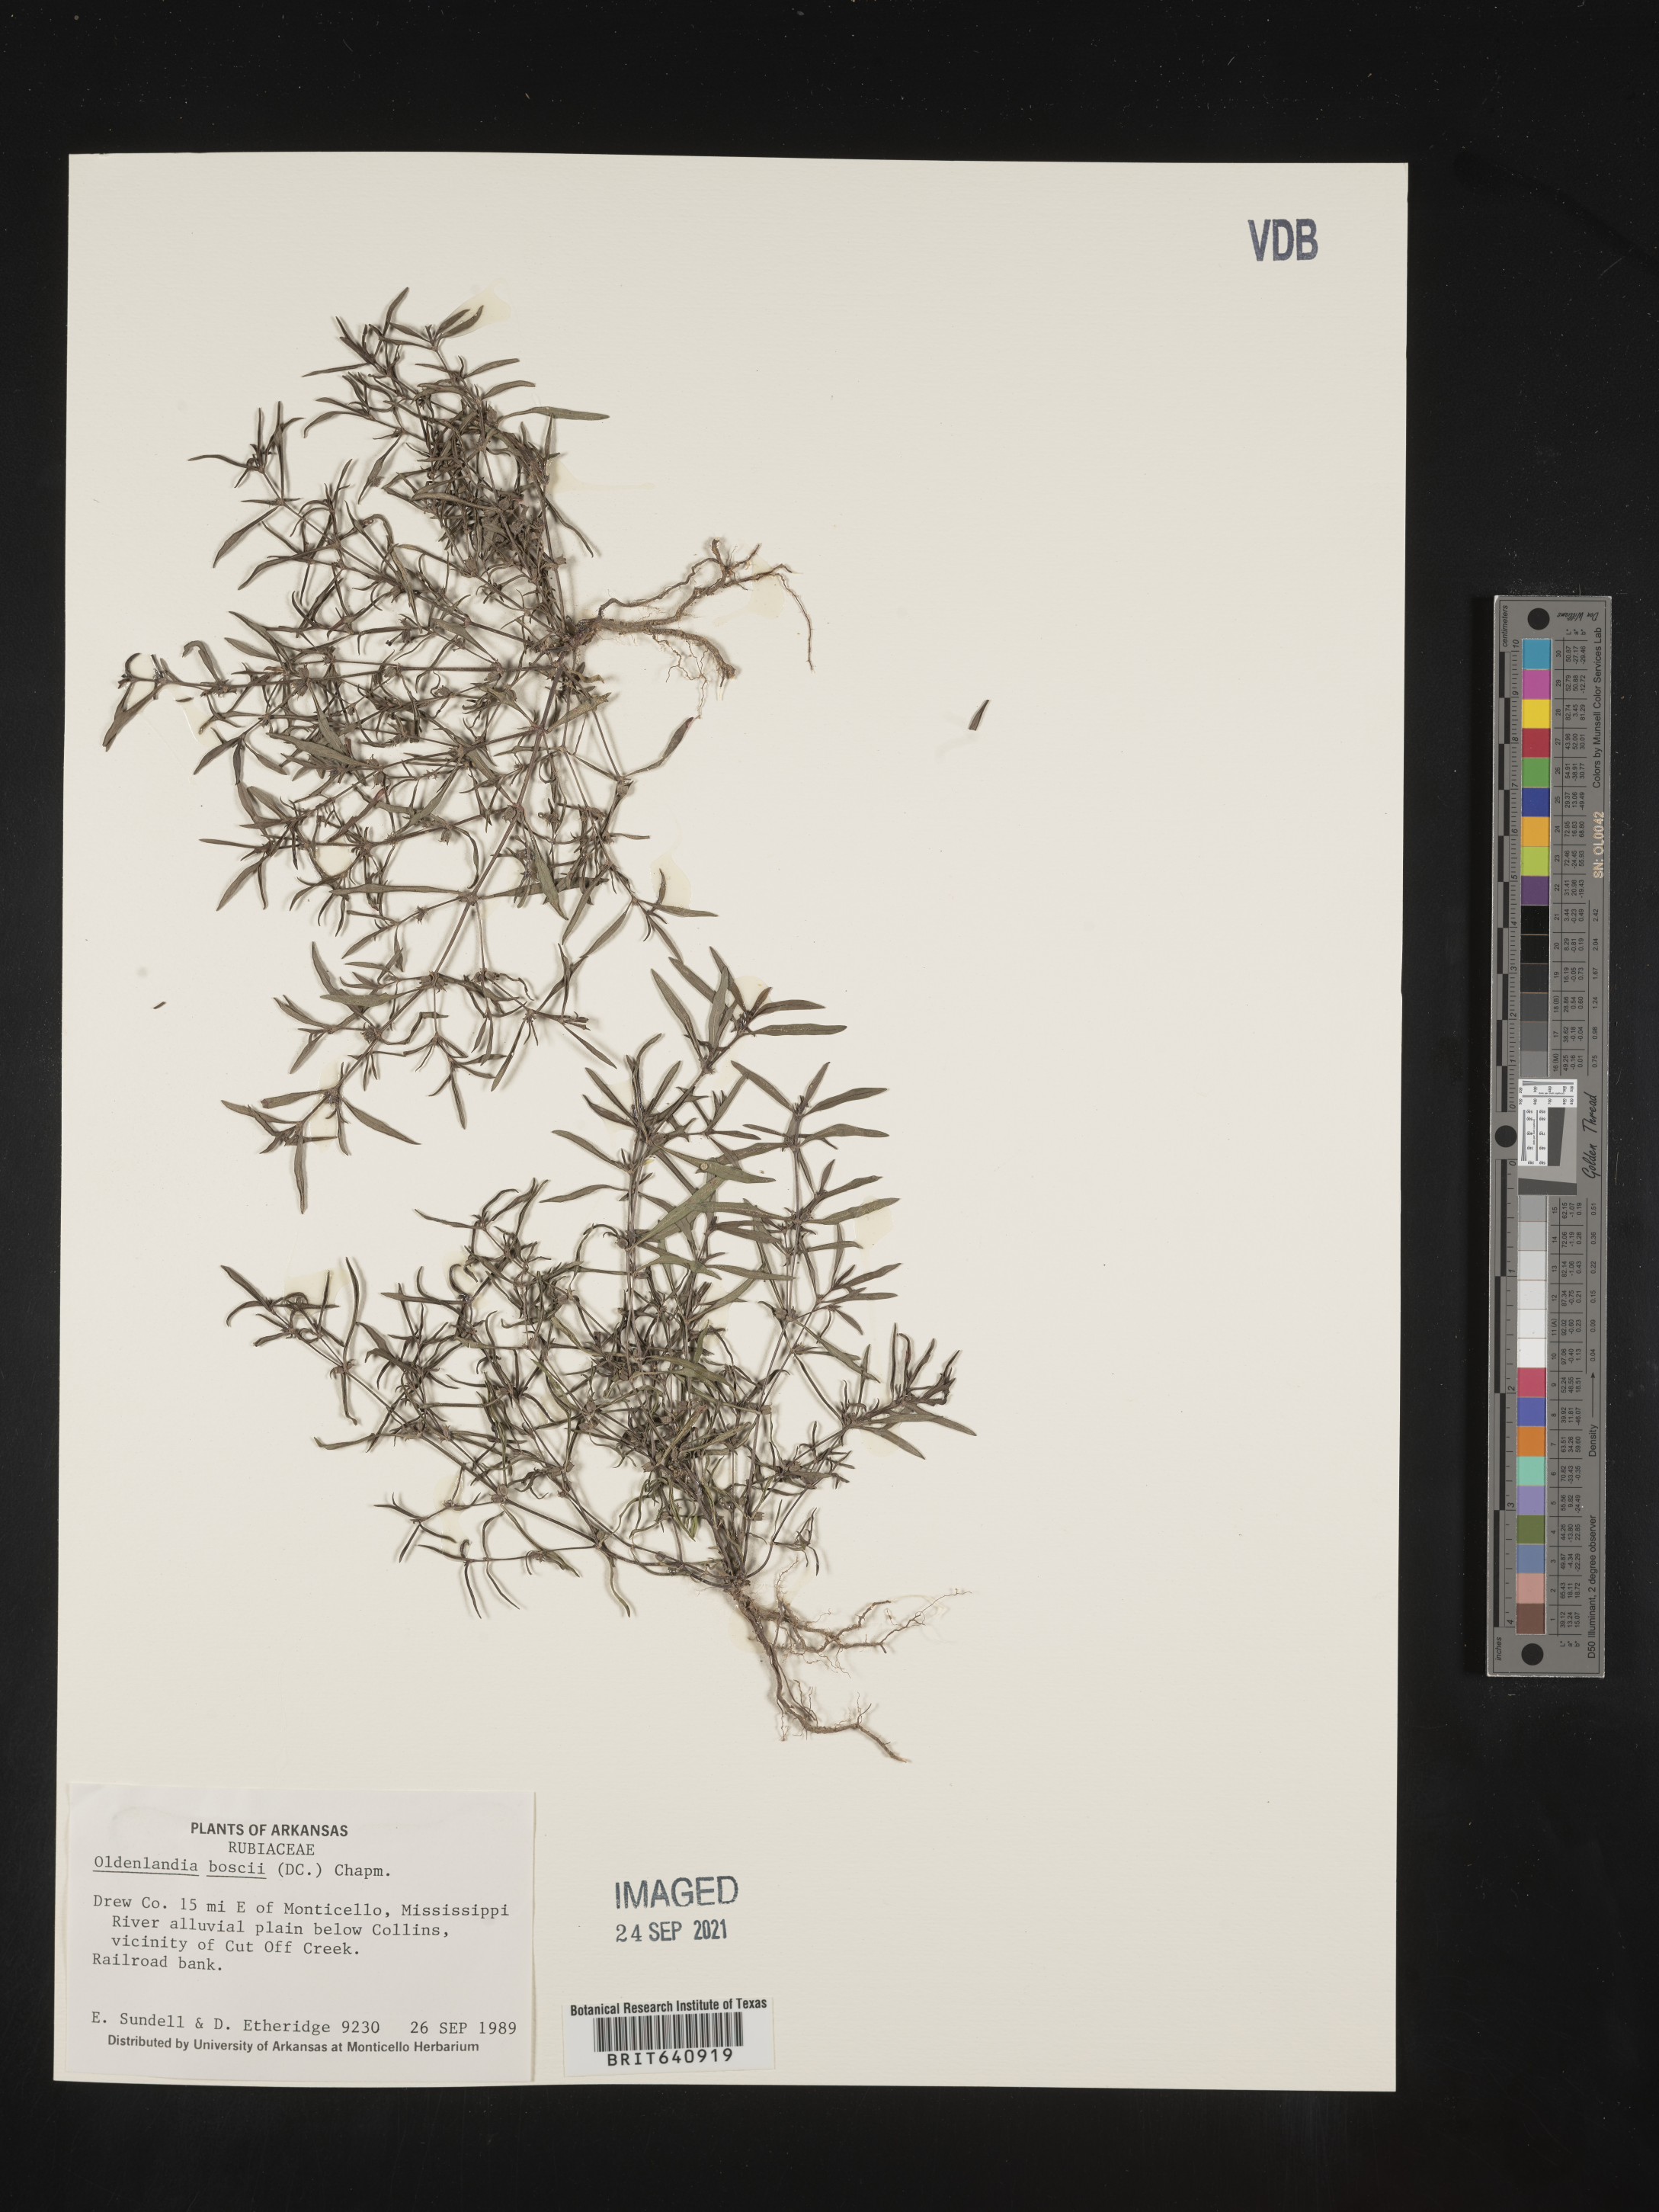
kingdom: Plantae
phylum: Tracheophyta
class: Magnoliopsida
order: Gentianales
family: Rubiaceae
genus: Oldenlandia
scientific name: Oldenlandia boscii
